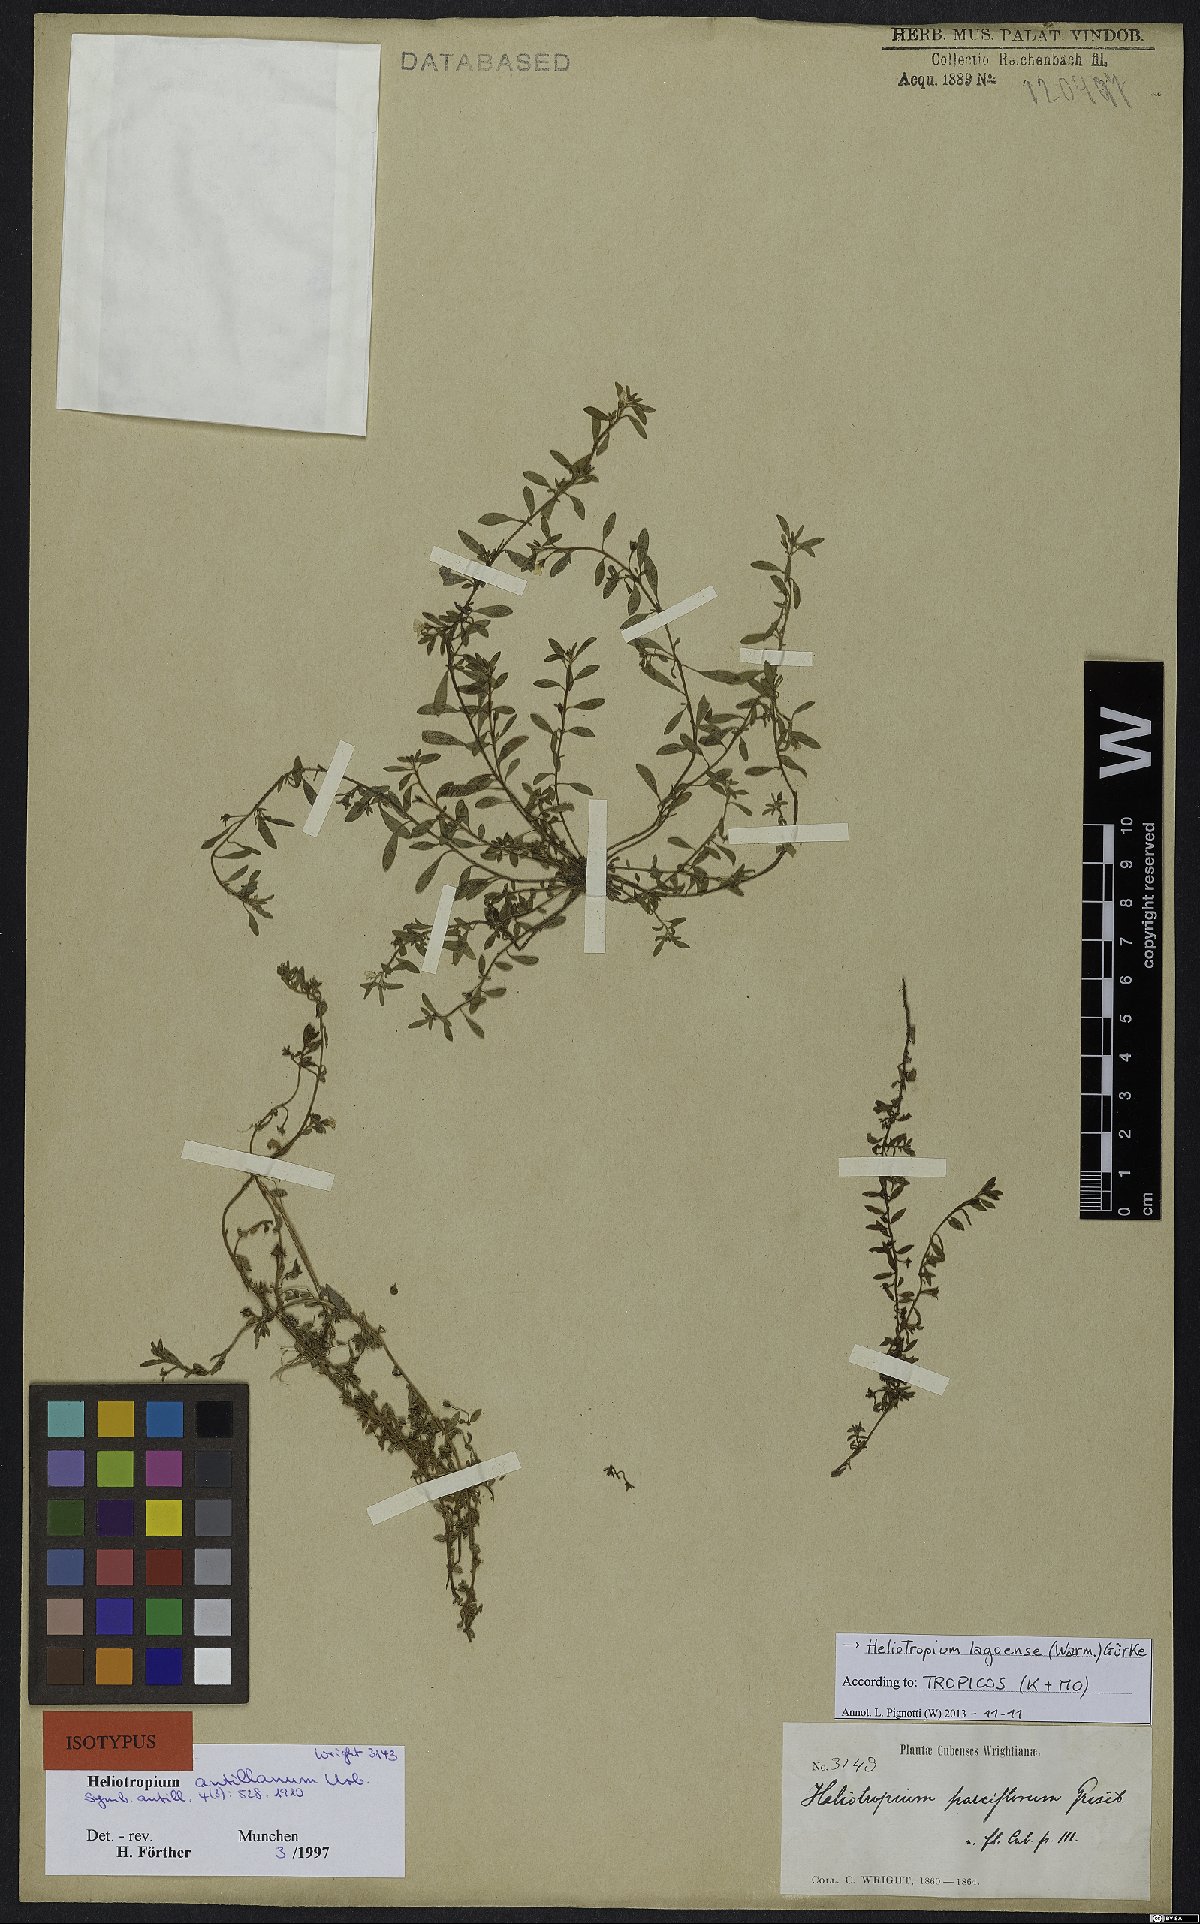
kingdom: Plantae
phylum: Tracheophyta
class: Magnoliopsida
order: Boraginales
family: Heliotropiaceae
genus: Euploca
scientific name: Euploca lagoensis
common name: Antilles heliotrope
